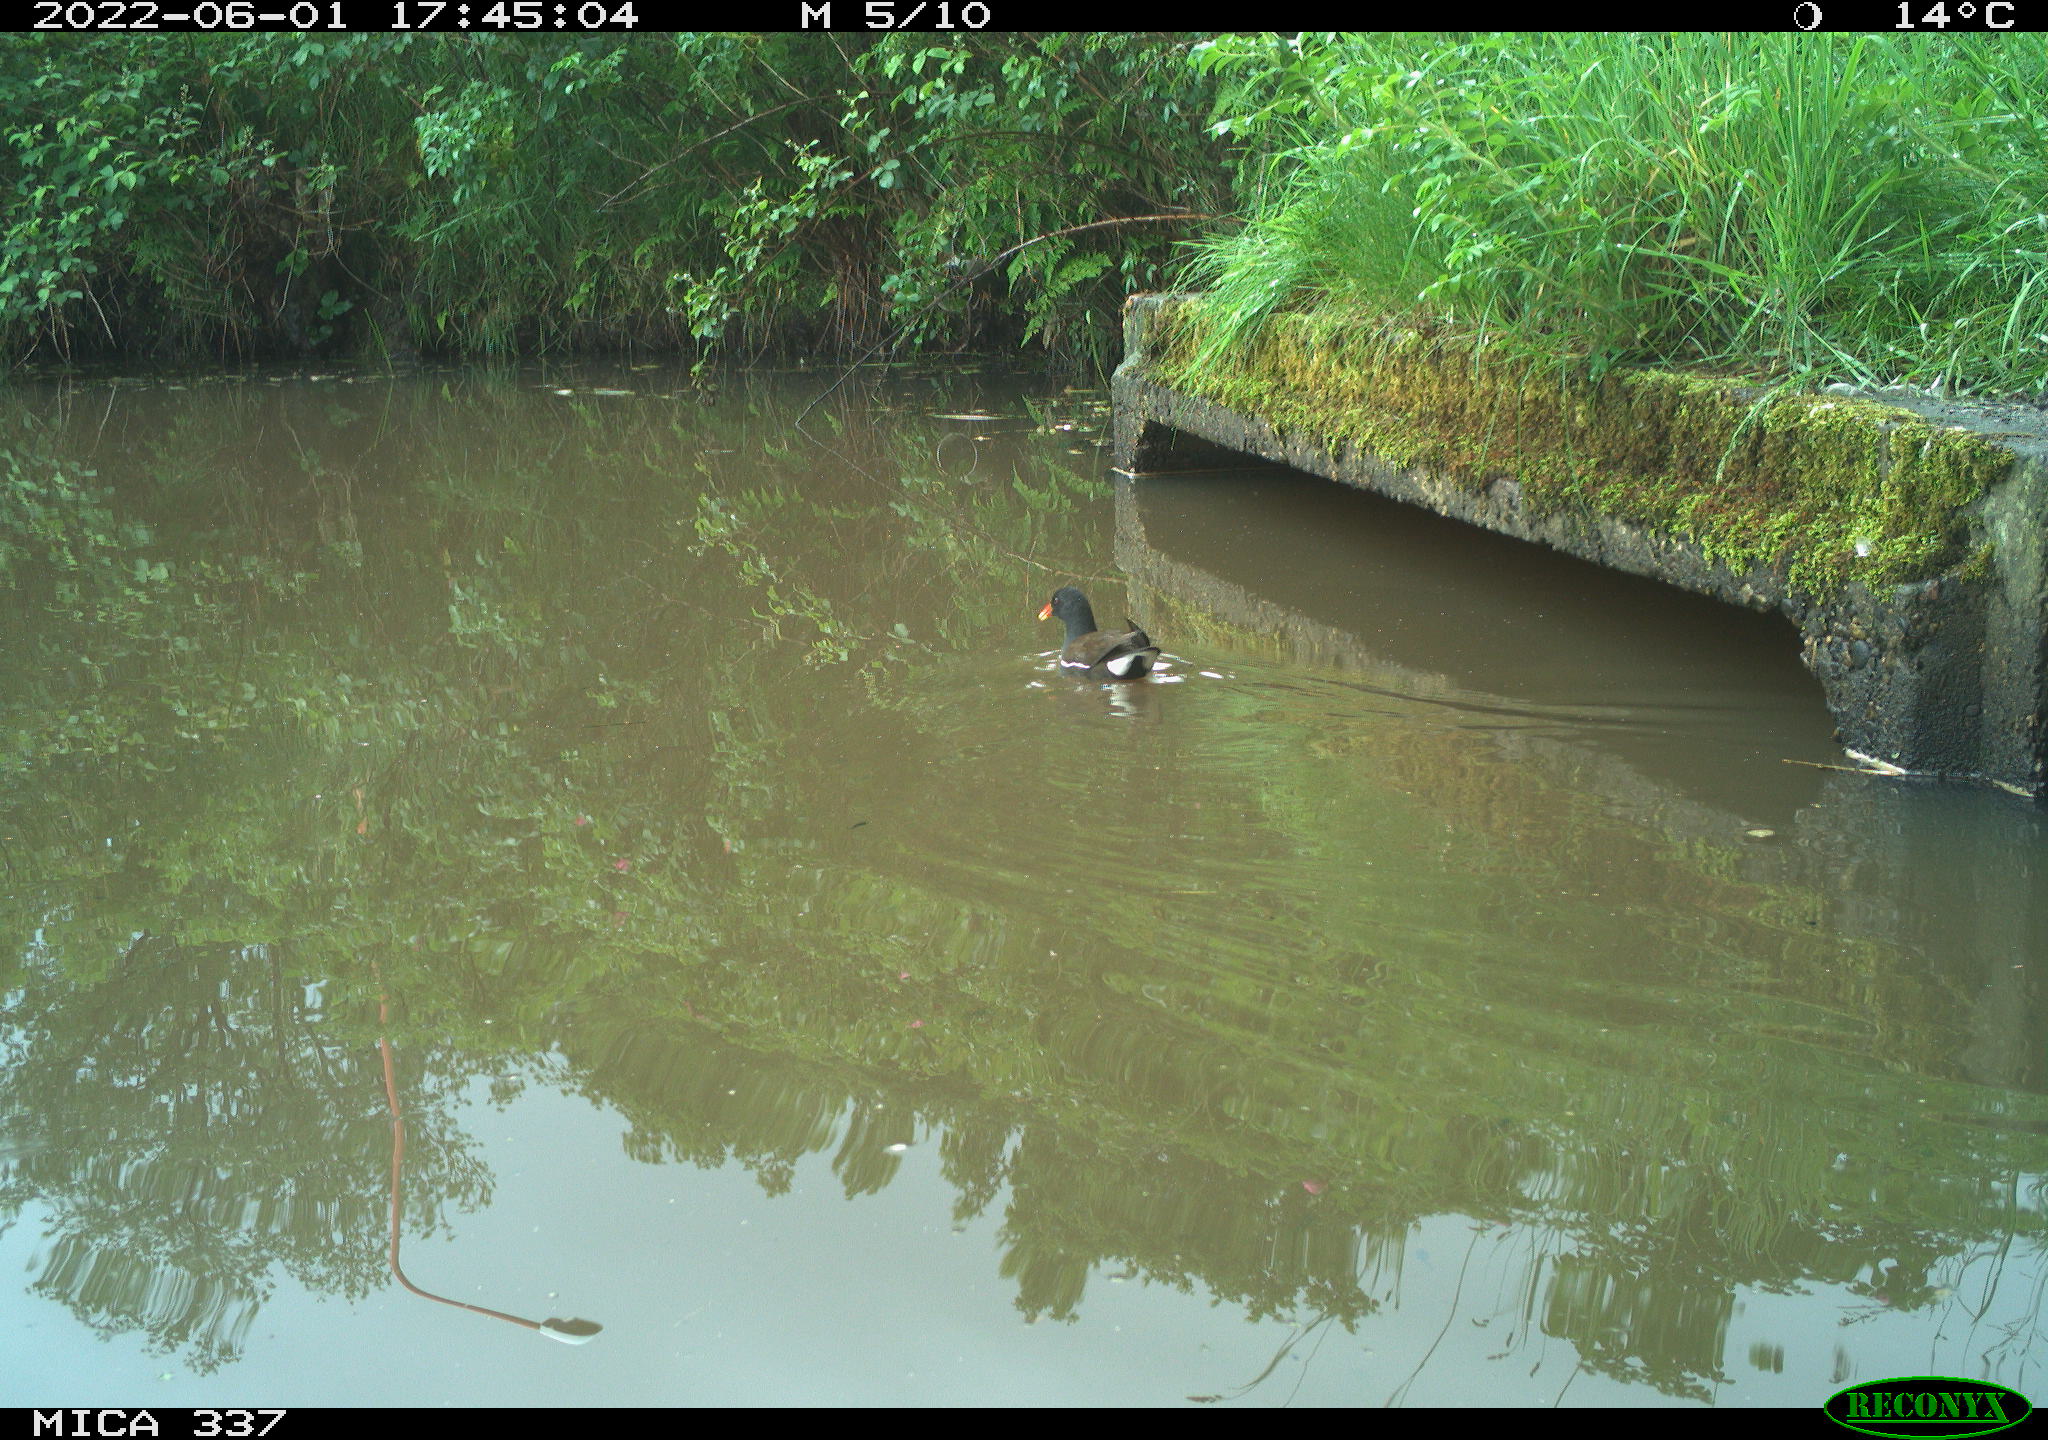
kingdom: Animalia
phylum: Chordata
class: Aves
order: Gruiformes
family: Rallidae
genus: Gallinula
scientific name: Gallinula chloropus
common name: Common moorhen
